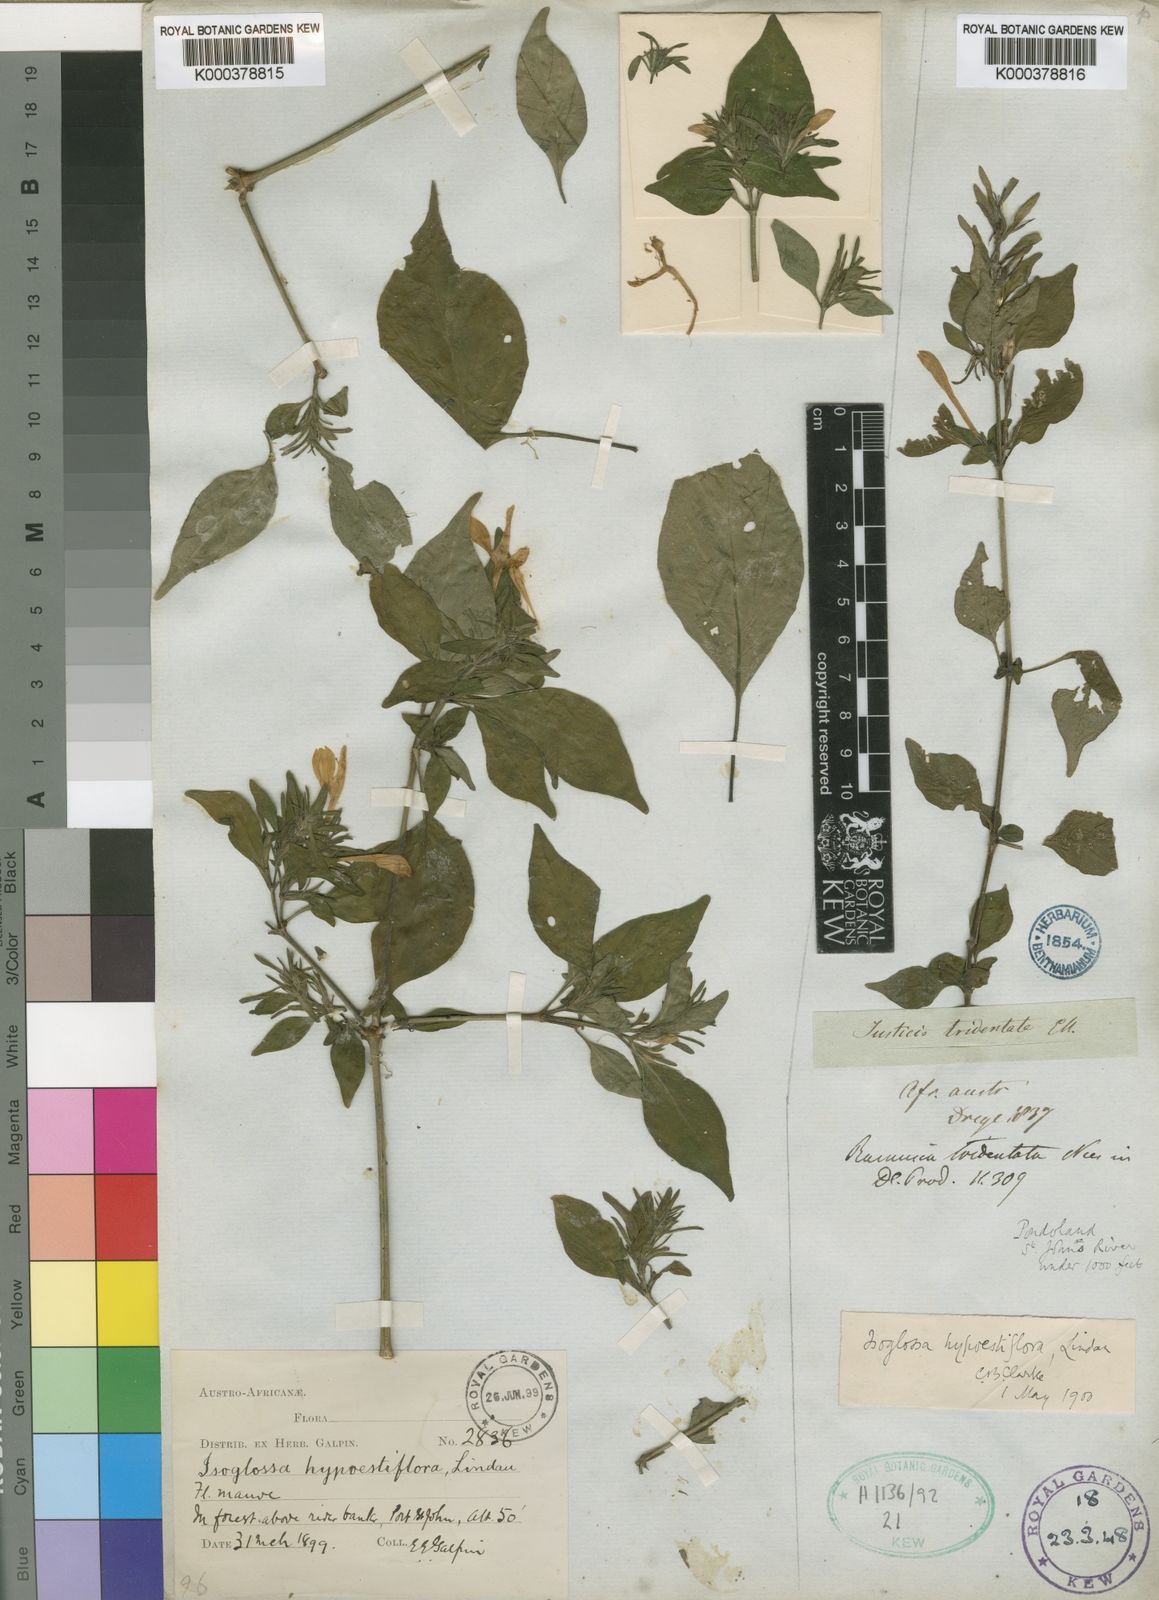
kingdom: Plantae
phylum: Tracheophyta
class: Magnoliopsida
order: Lamiales
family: Acanthaceae
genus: Isoglossa
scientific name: Isoglossa hypoestiflora
